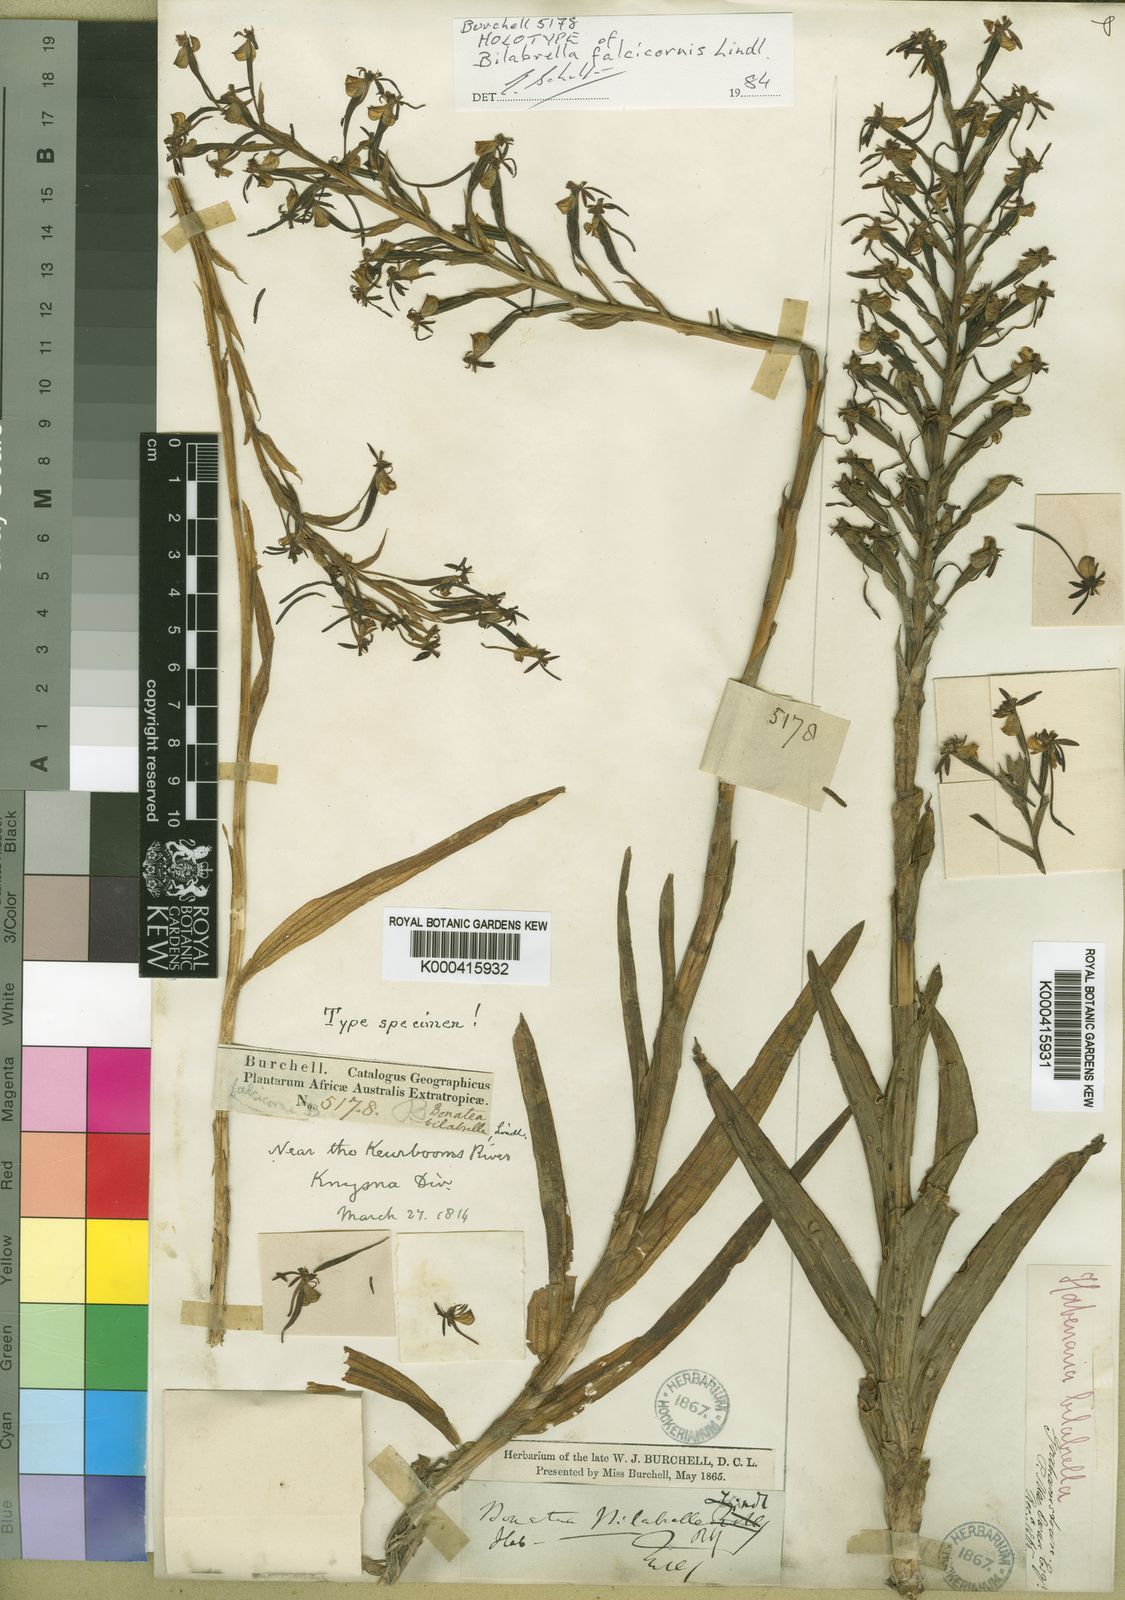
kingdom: Plantae
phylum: Tracheophyta
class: Liliopsida
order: Asparagales
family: Orchidaceae
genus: Habenaria
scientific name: Habenaria
